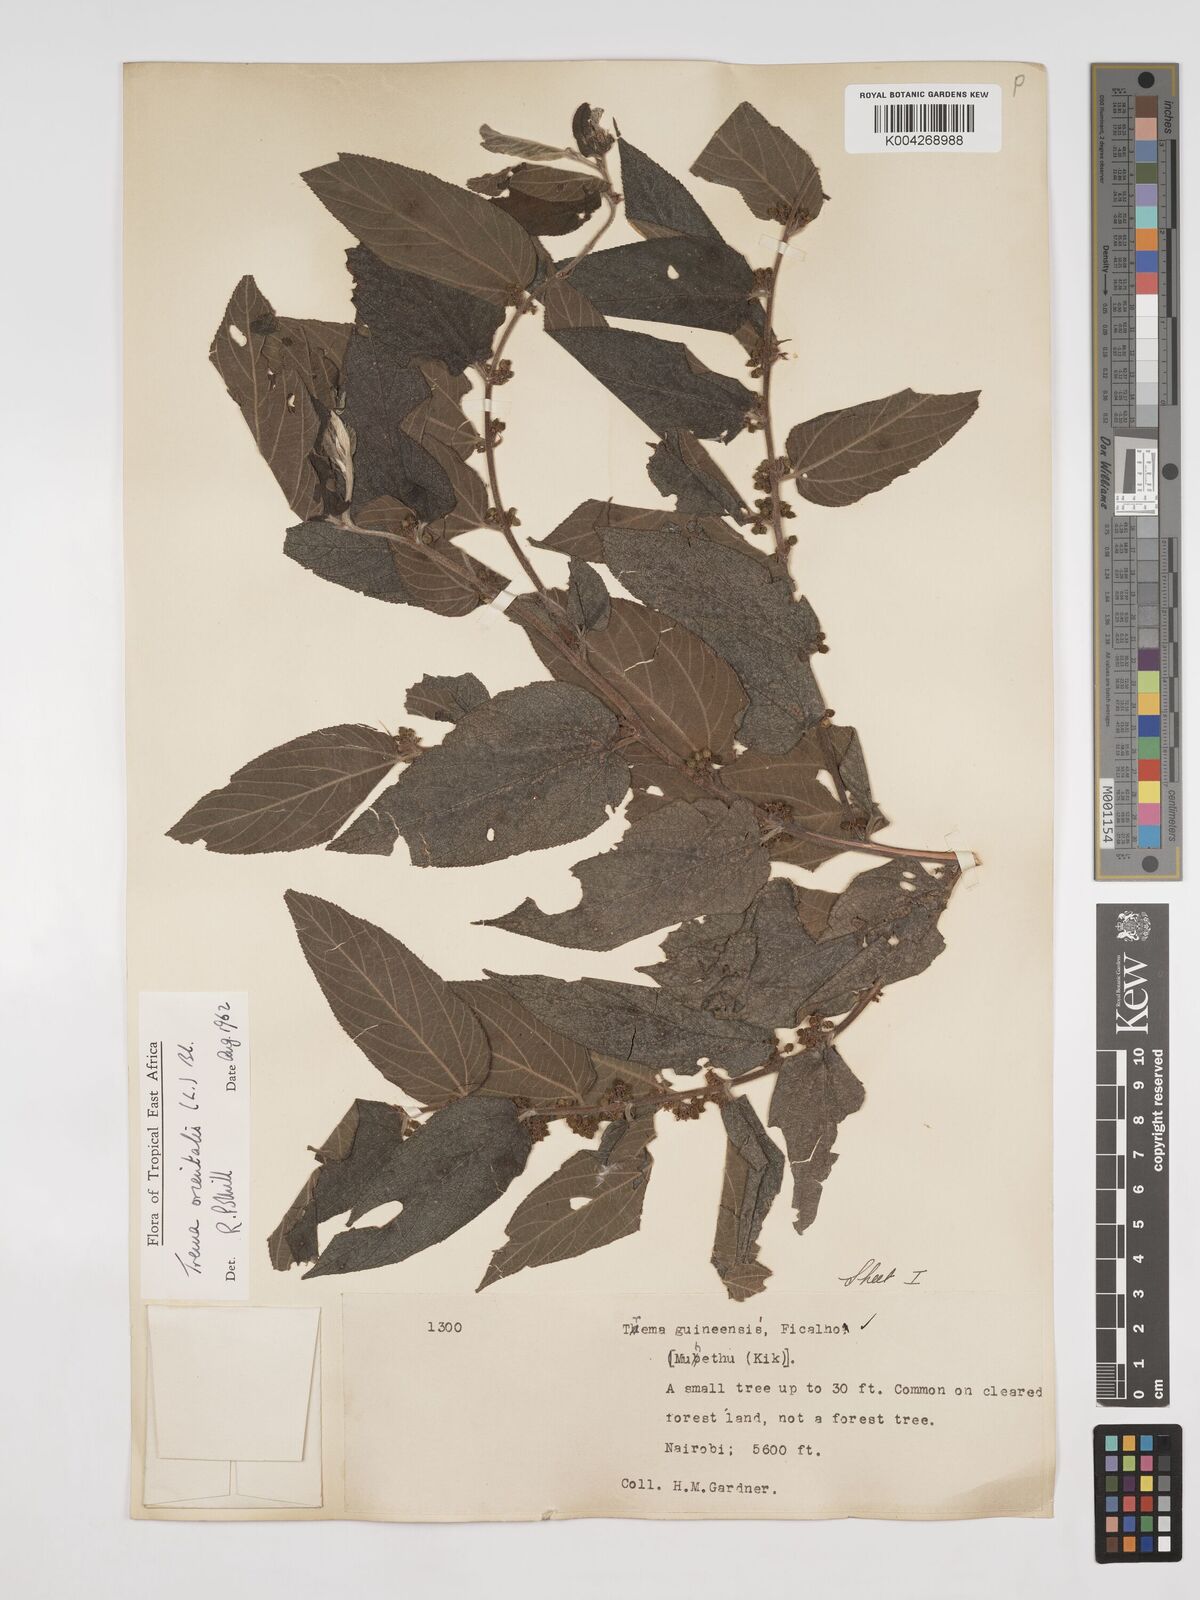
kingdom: Plantae
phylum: Tracheophyta
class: Magnoliopsida
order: Rosales
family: Cannabaceae
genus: Trema
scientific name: Trema orientale
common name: Indian charcoal tree
